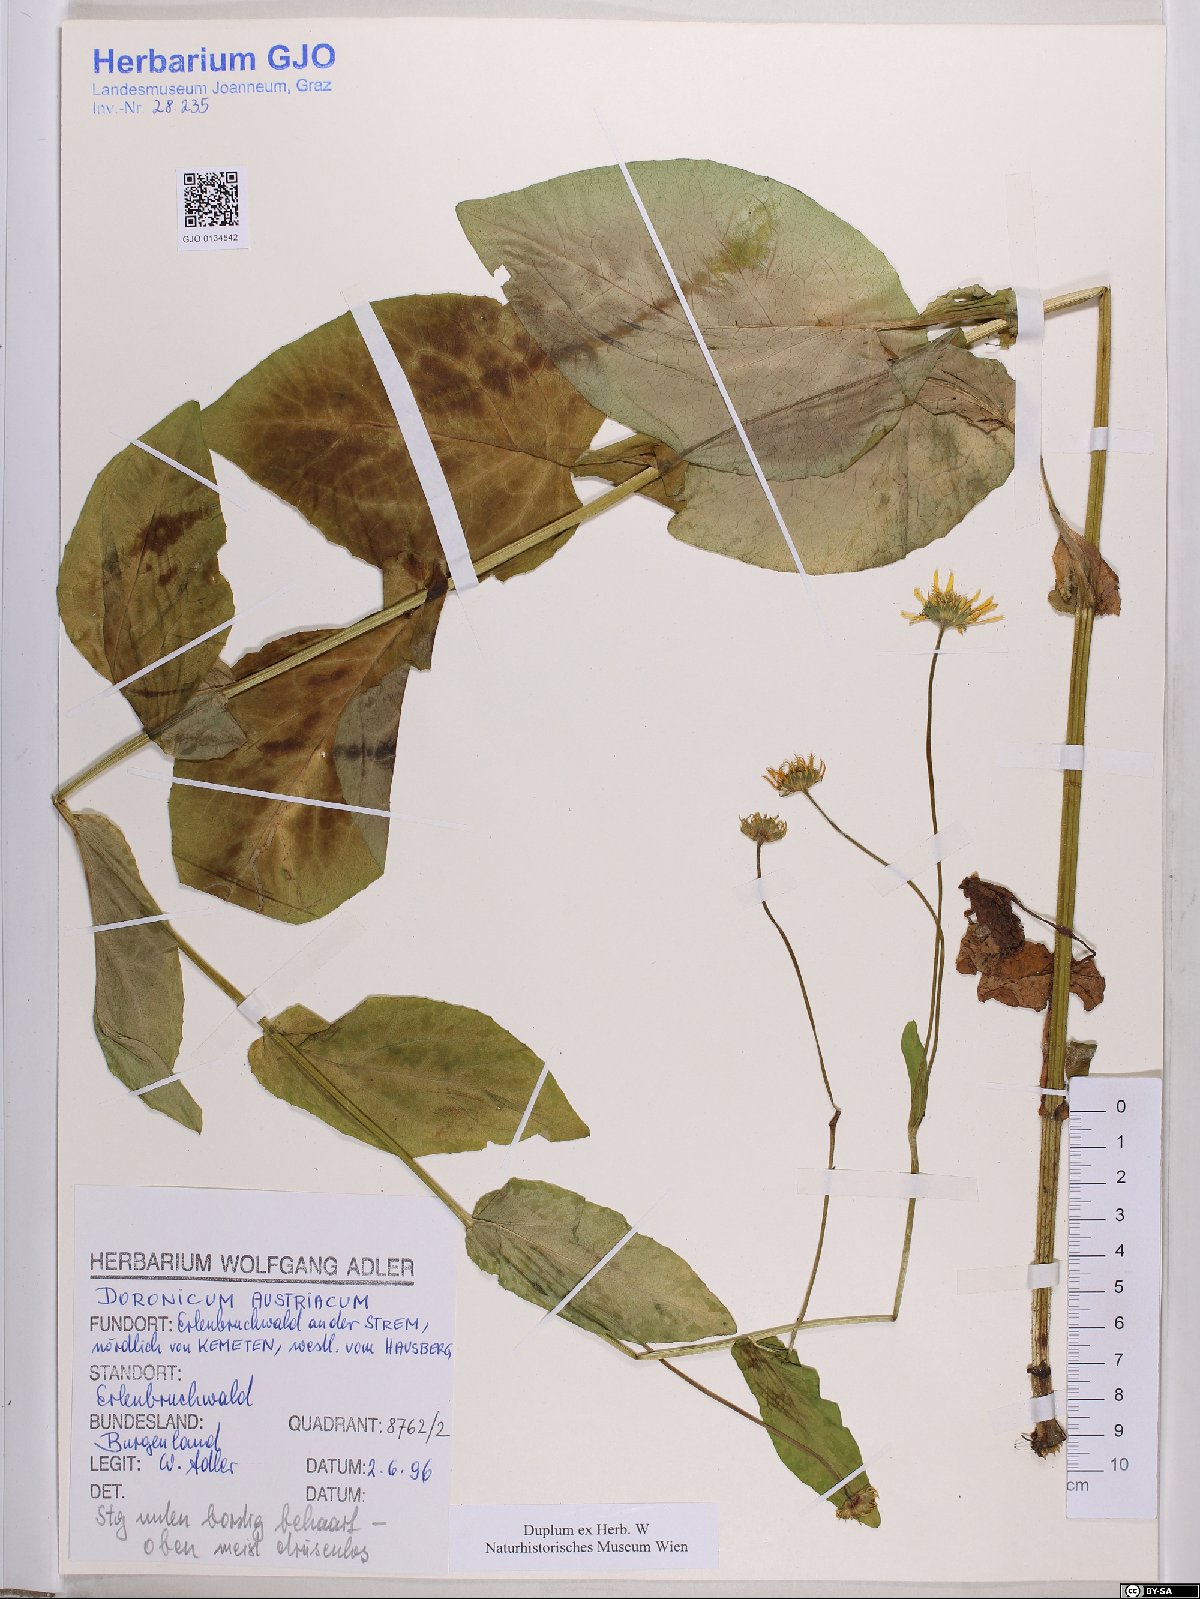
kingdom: Plantae
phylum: Tracheophyta
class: Magnoliopsida
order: Asterales
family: Asteraceae
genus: Doronicum
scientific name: Doronicum austriacum
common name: Austrian leopard's-bane
